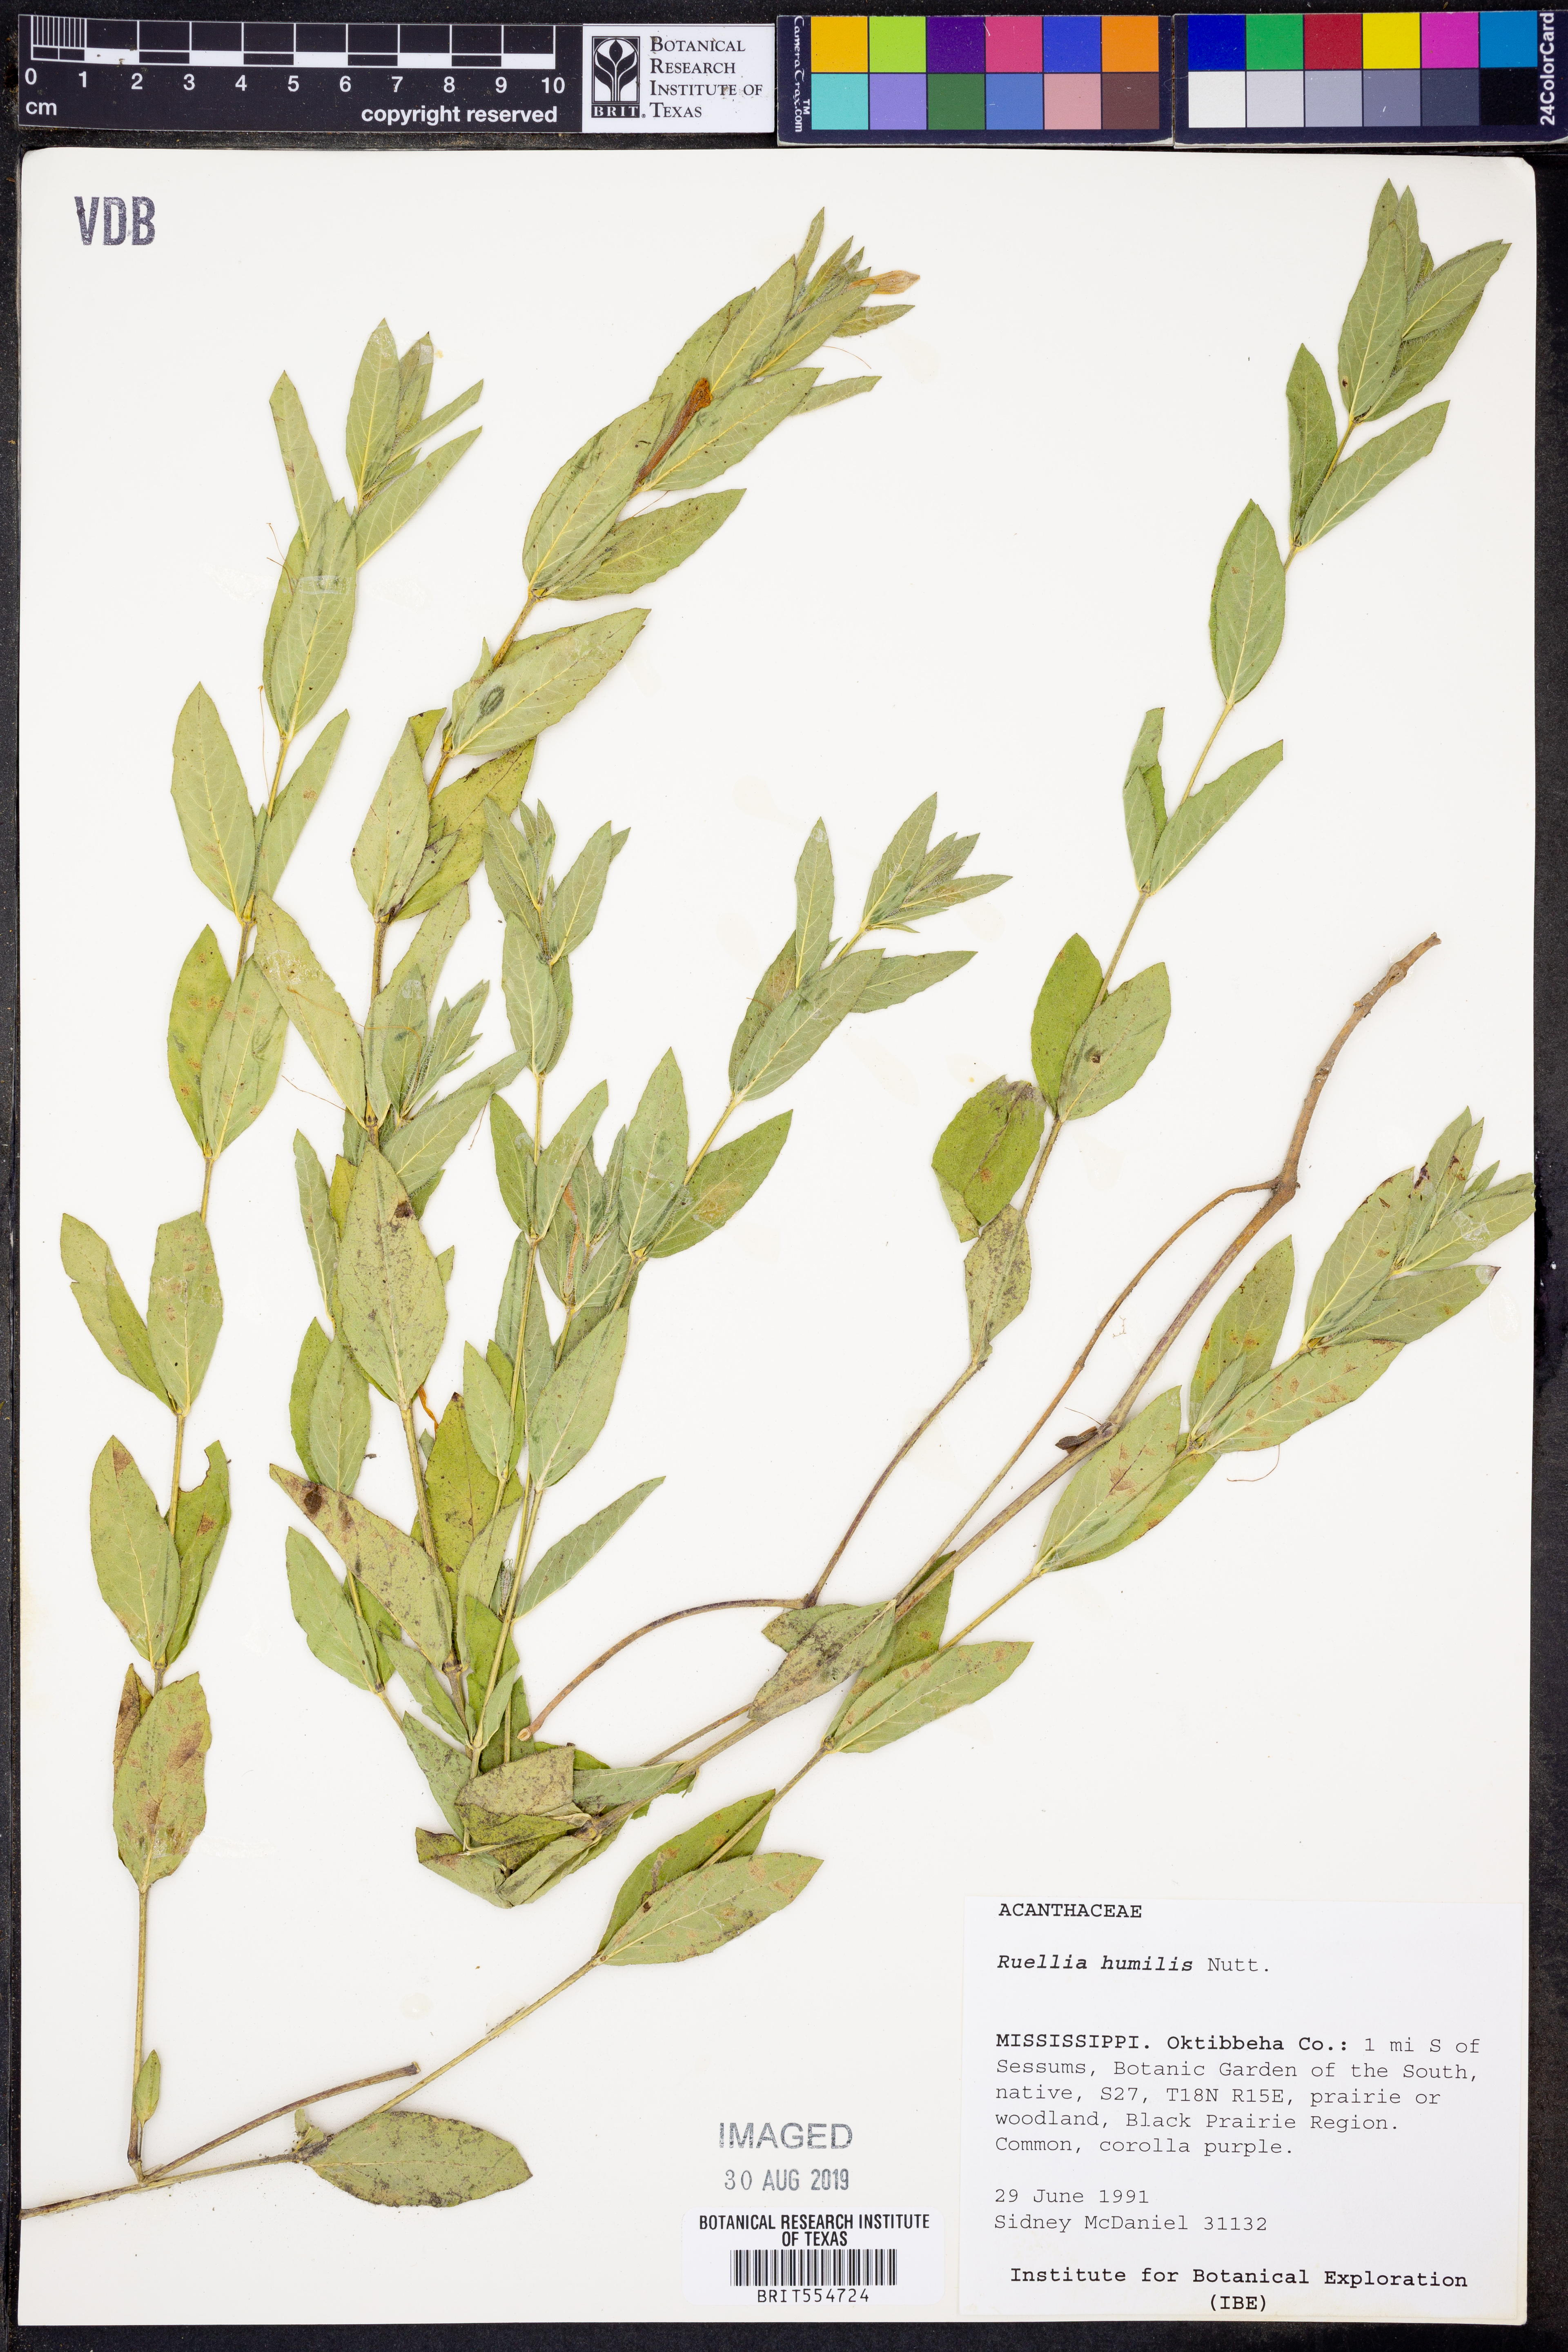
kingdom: Plantae
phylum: Tracheophyta
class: Magnoliopsida
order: Lamiales
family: Acanthaceae
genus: Ruellia
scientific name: Ruellia humilis
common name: Fringe-leaf ruellia
